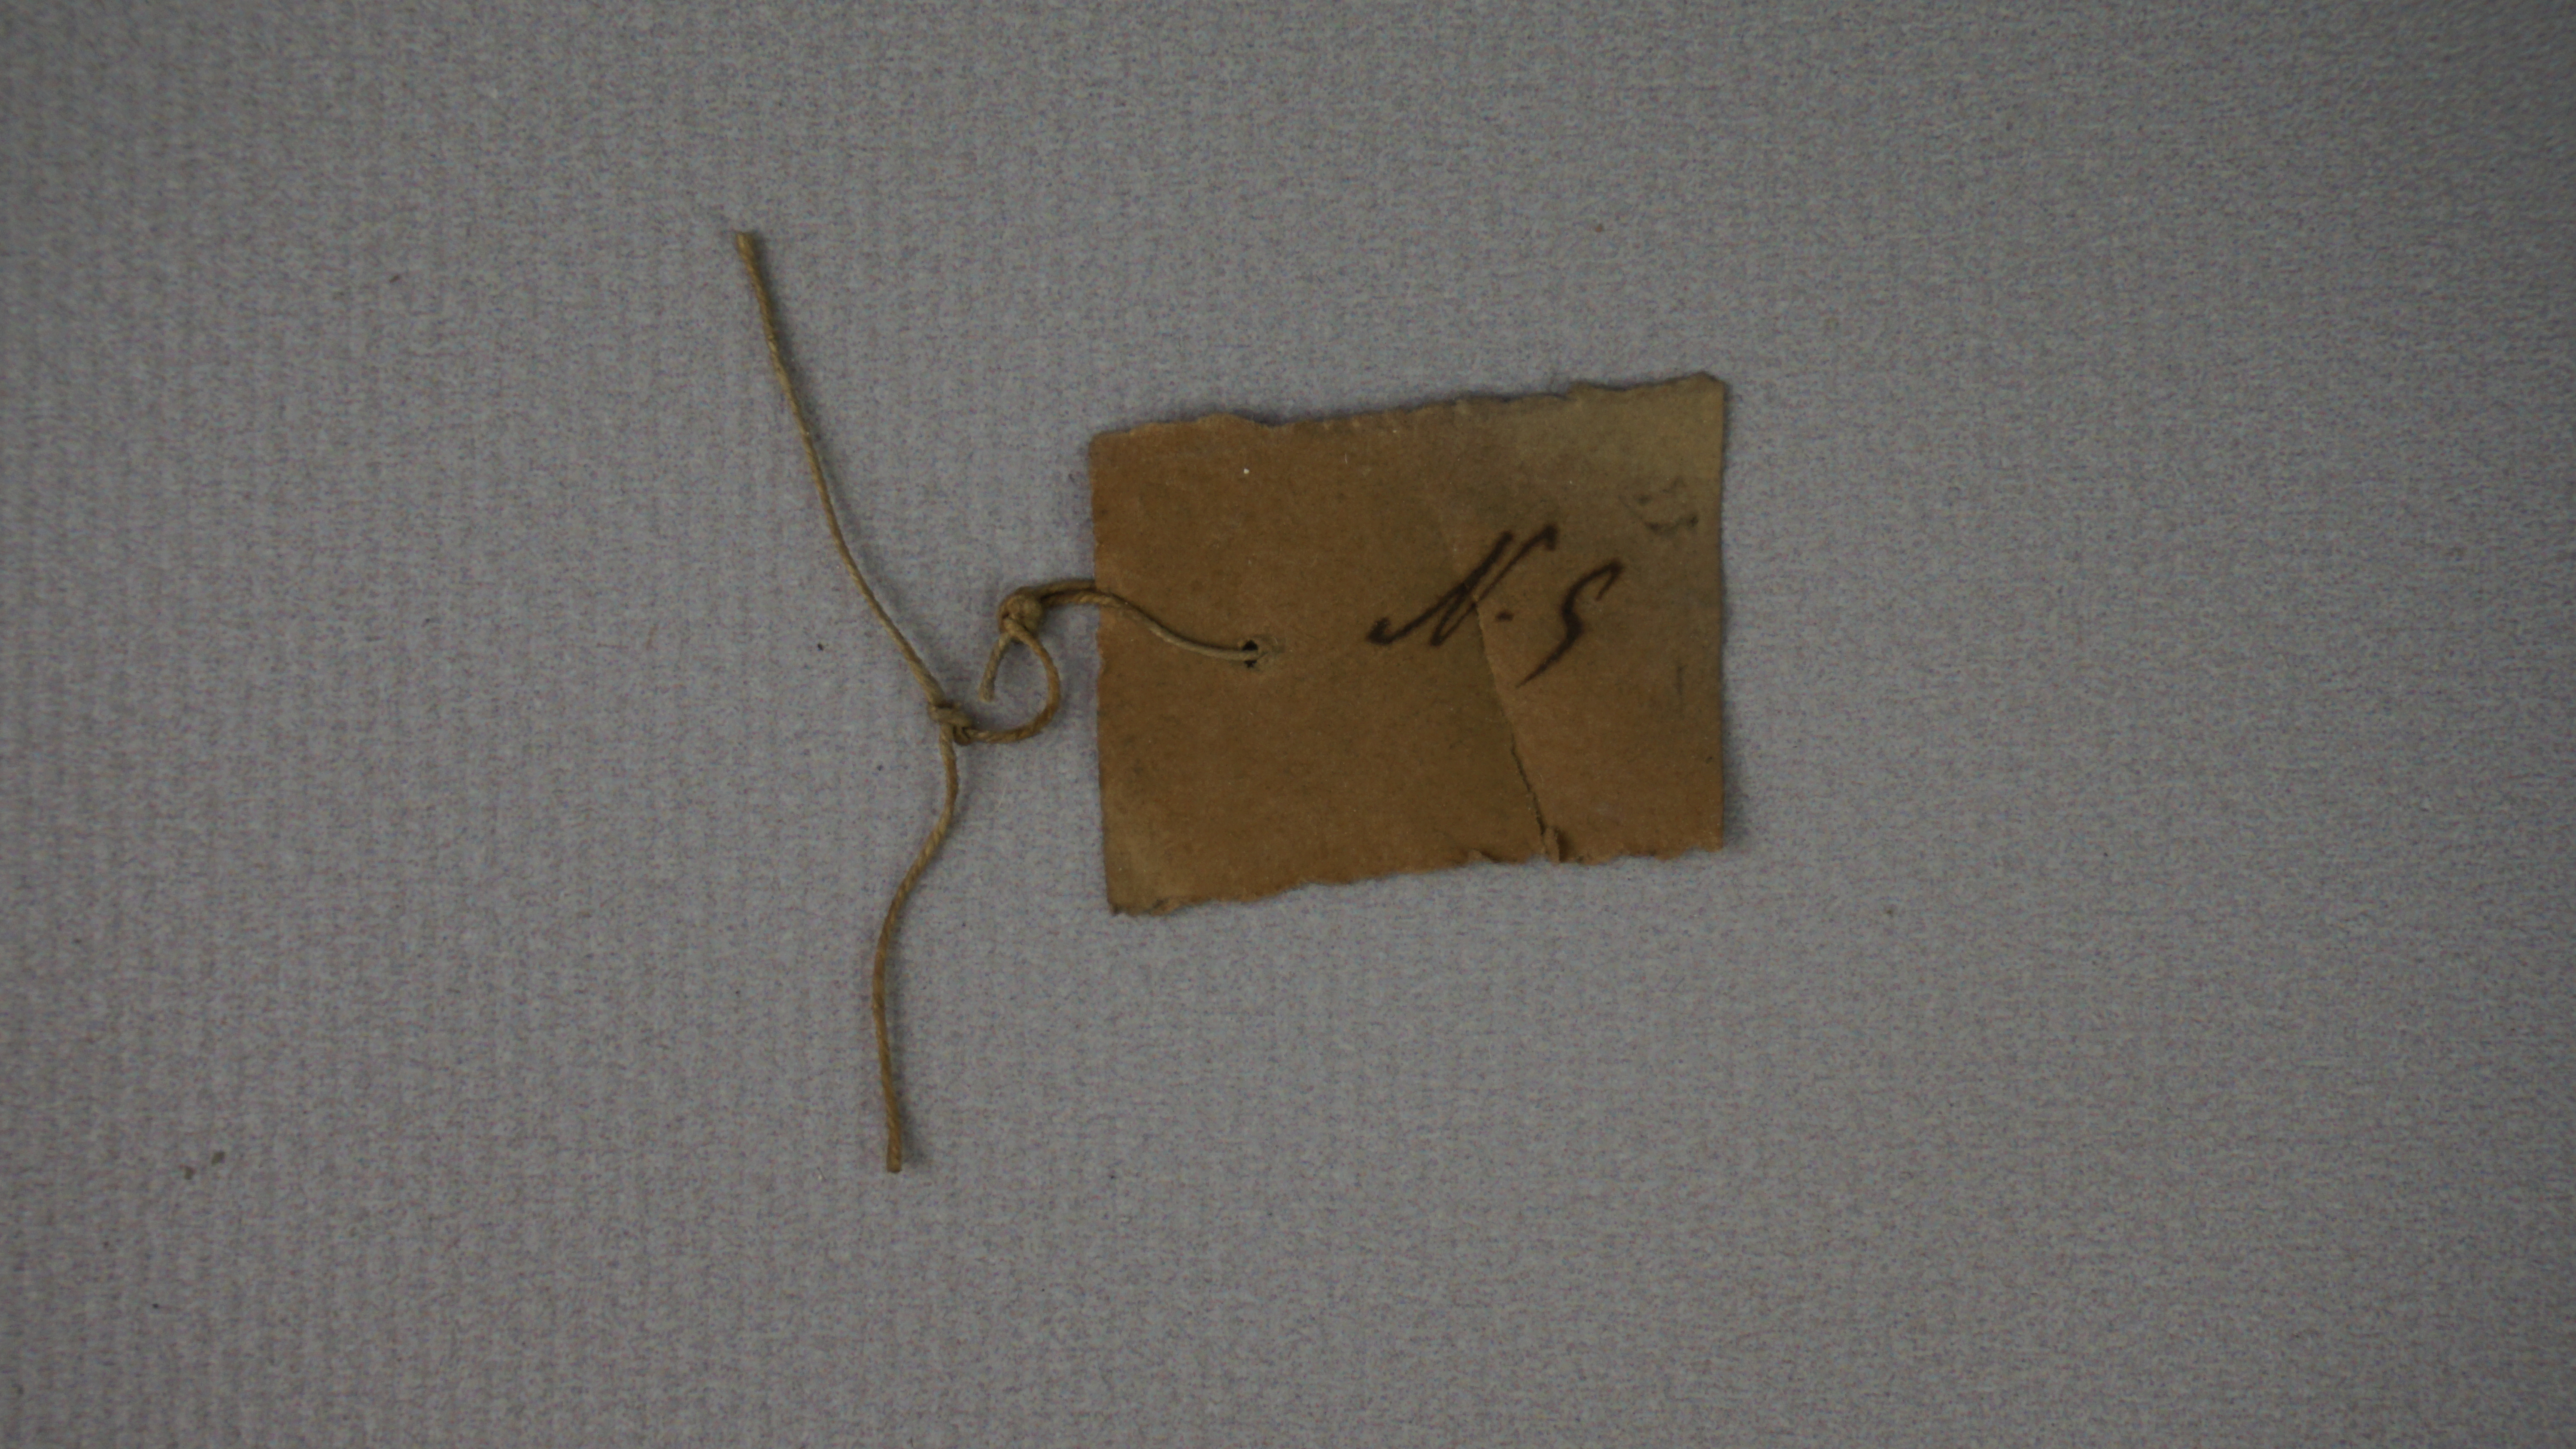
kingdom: Animalia
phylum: Chordata
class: Aves
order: Coraciiformes
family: Alcedinidae
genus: Chloroceryle
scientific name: Chloroceryle amazona
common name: Amazon kingfisher
